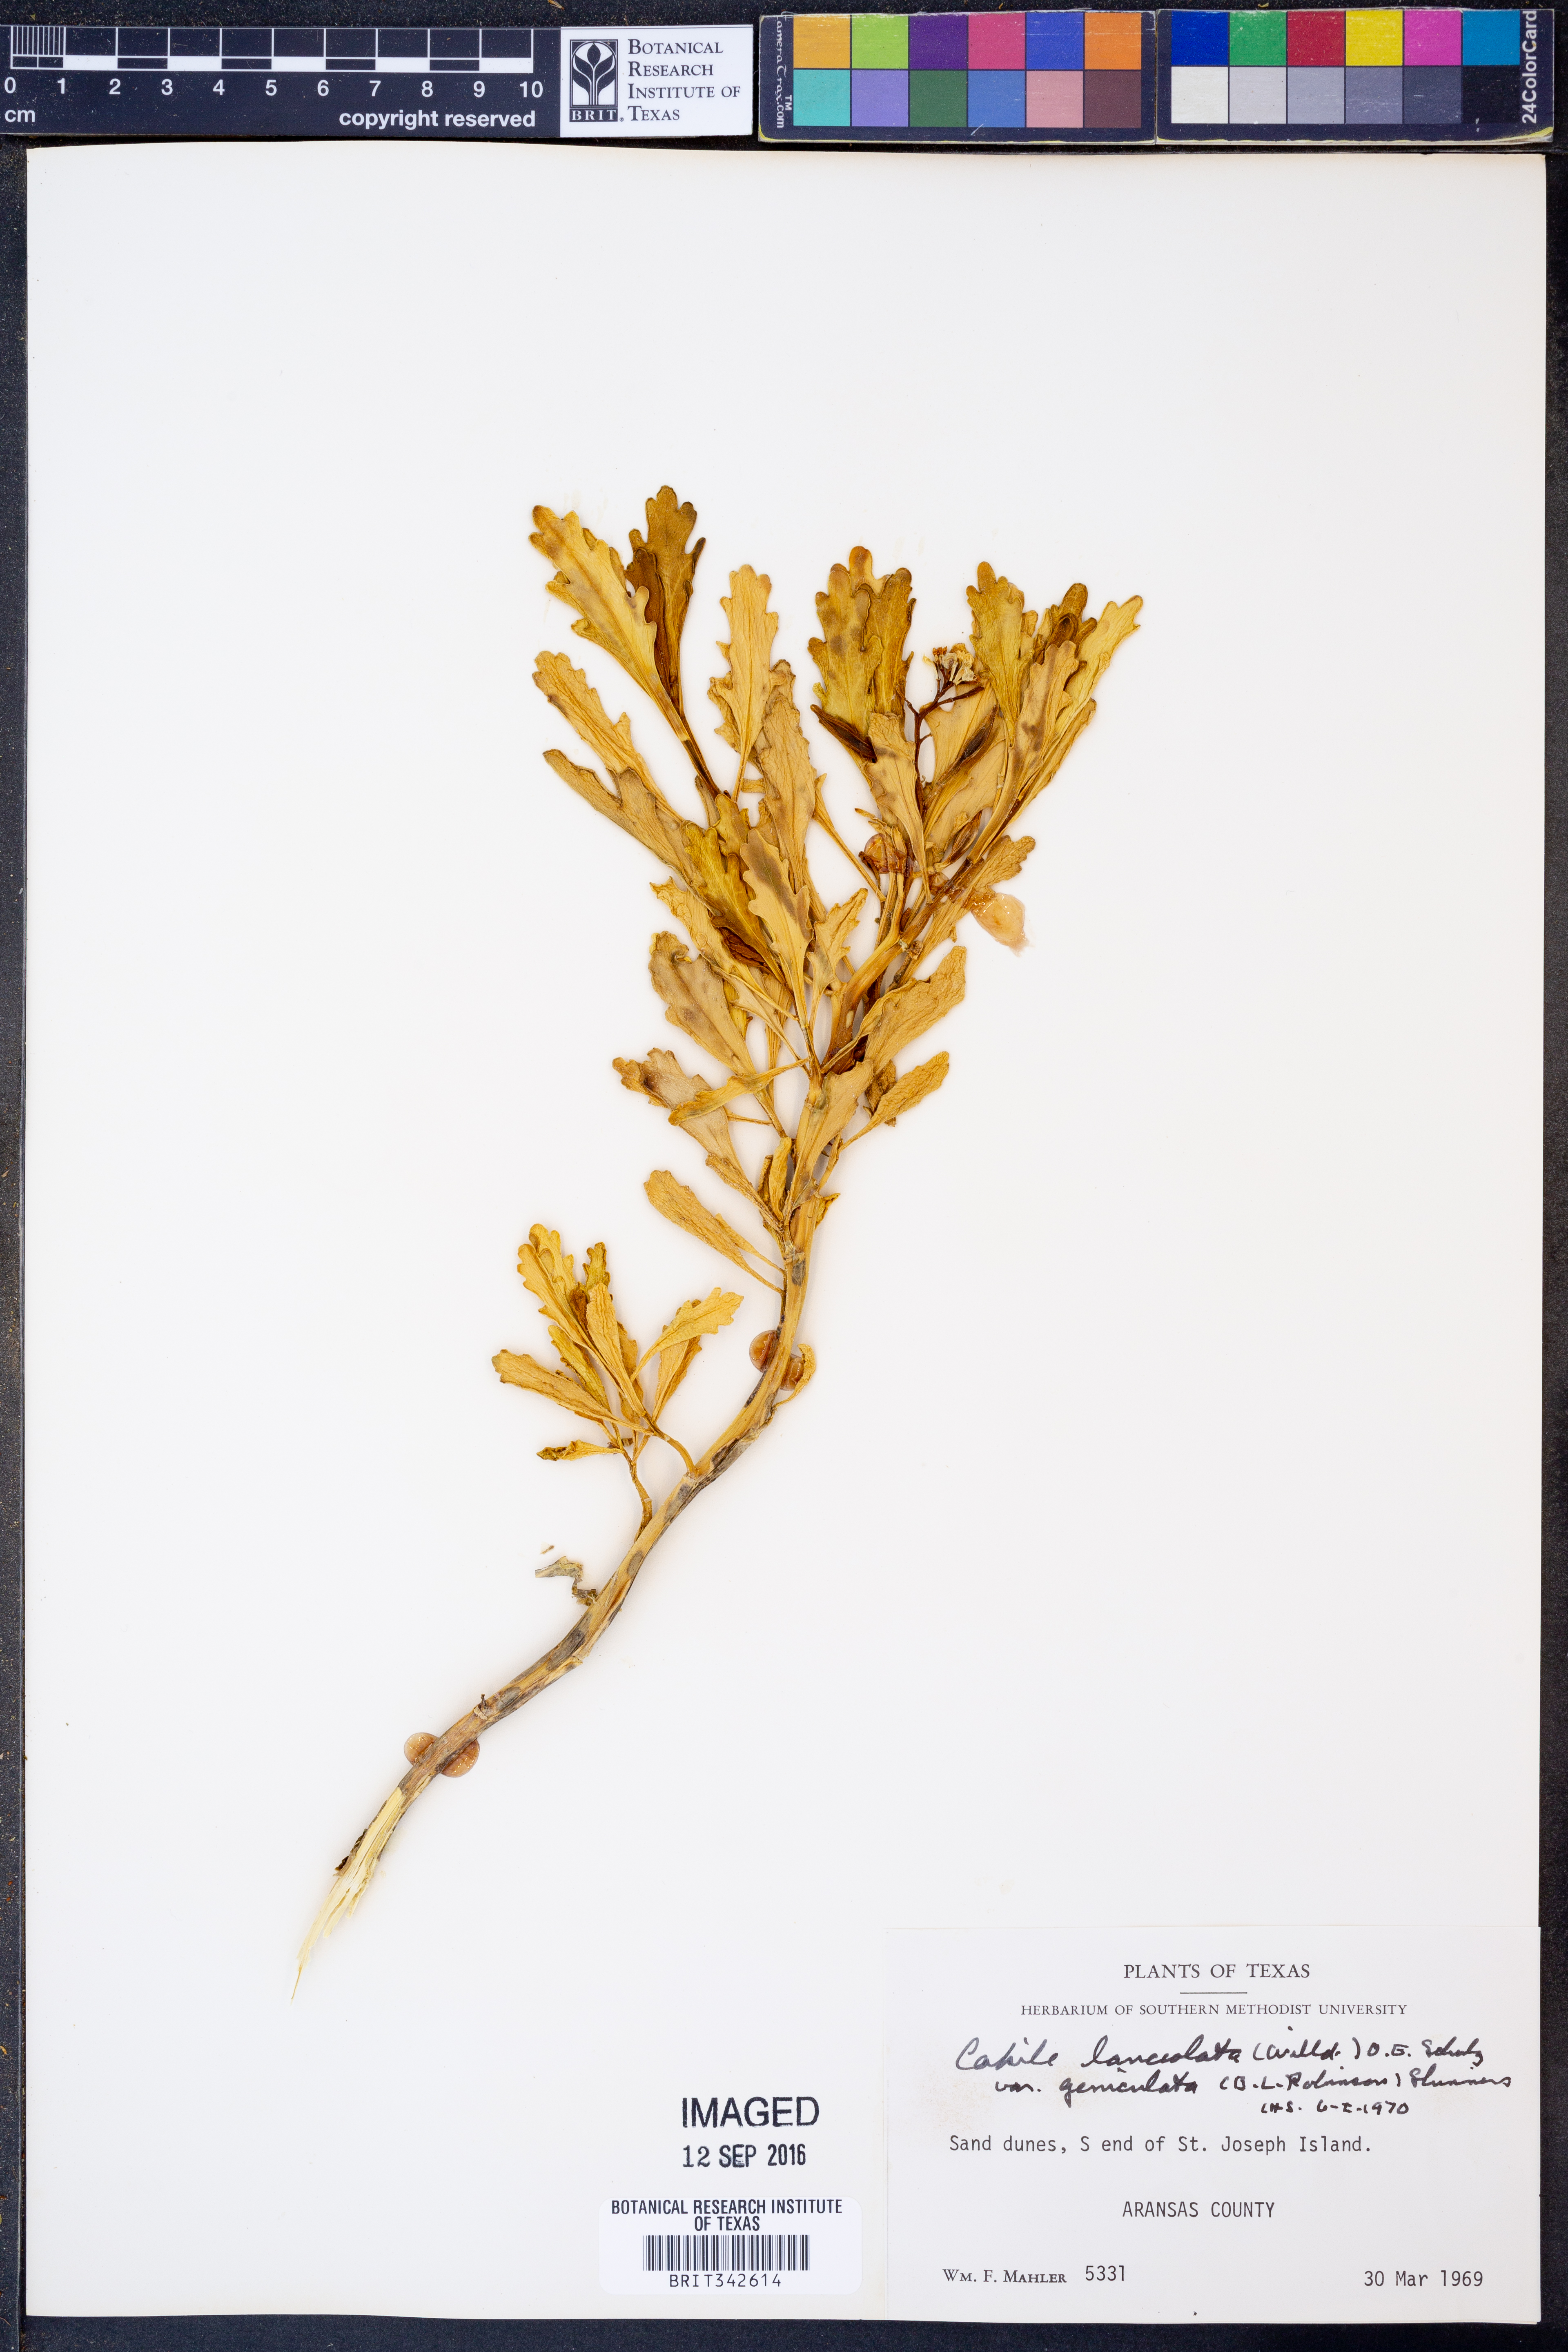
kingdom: Plantae
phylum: Tracheophyta
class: Magnoliopsida
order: Brassicales
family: Brassicaceae
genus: Cakile
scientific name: Cakile geniculata
